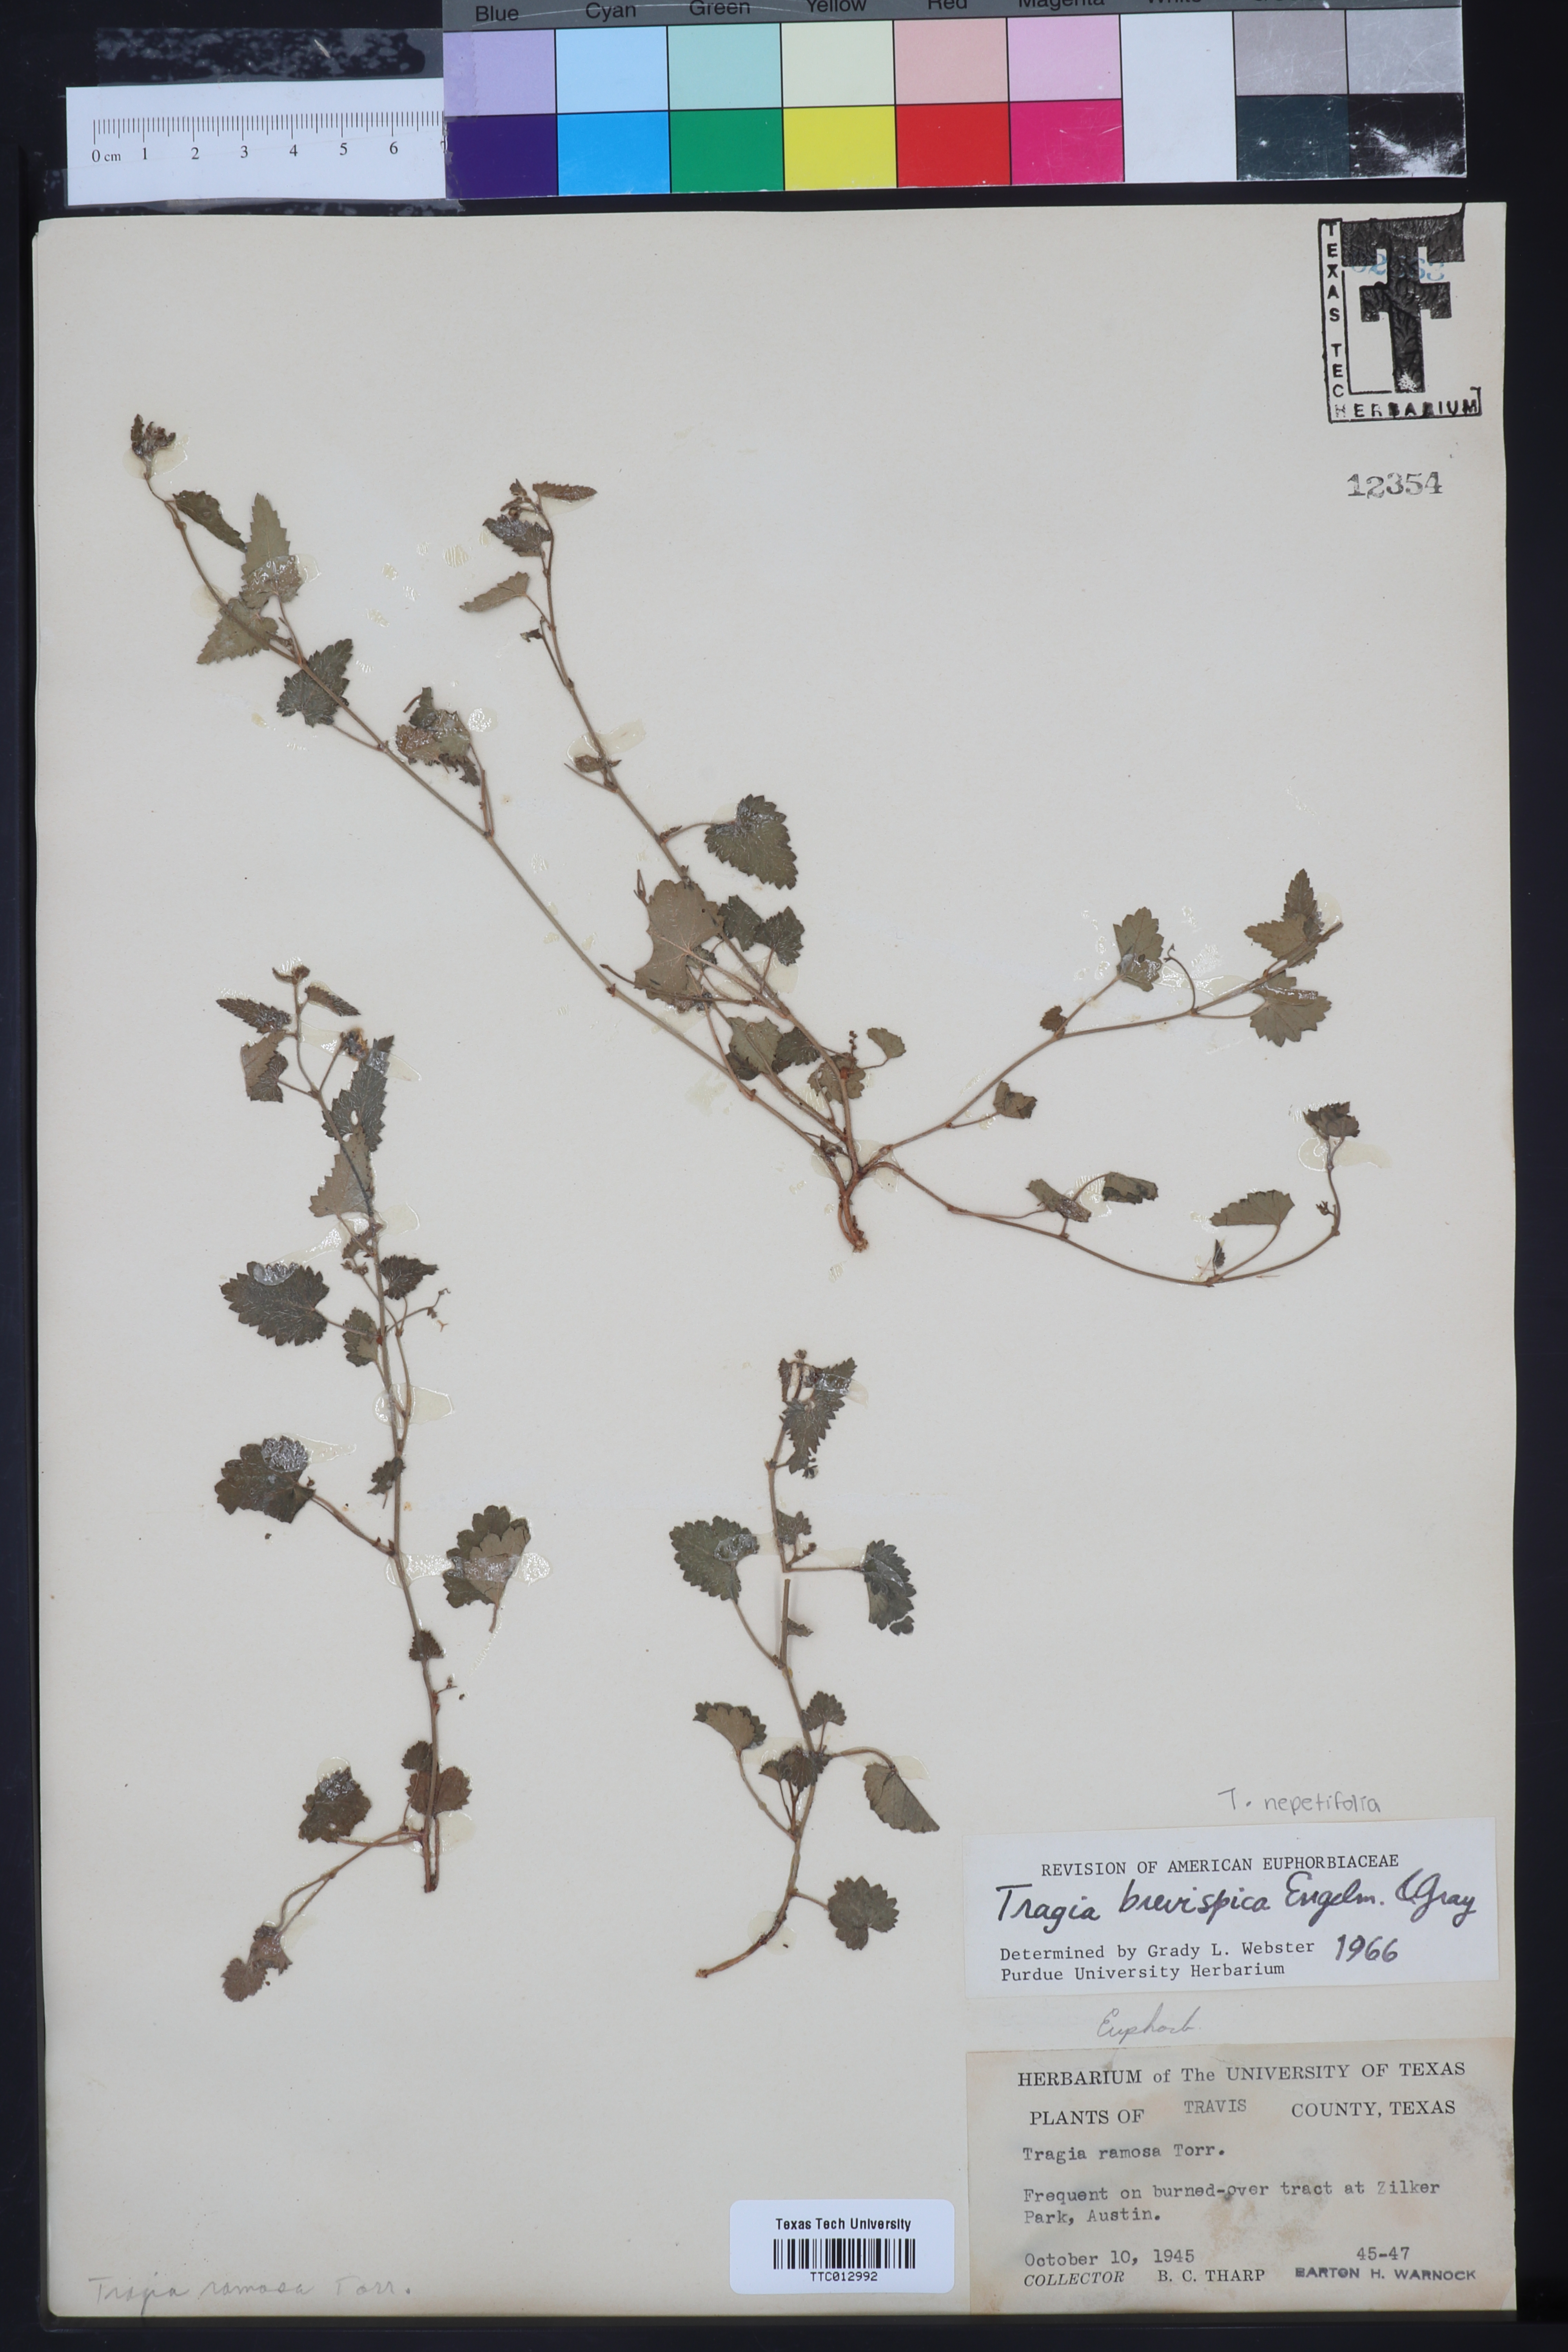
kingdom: Plantae
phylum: Tracheophyta
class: Magnoliopsida
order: Malpighiales
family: Euphorbiaceae
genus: Tragia
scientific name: Tragia brevispica
